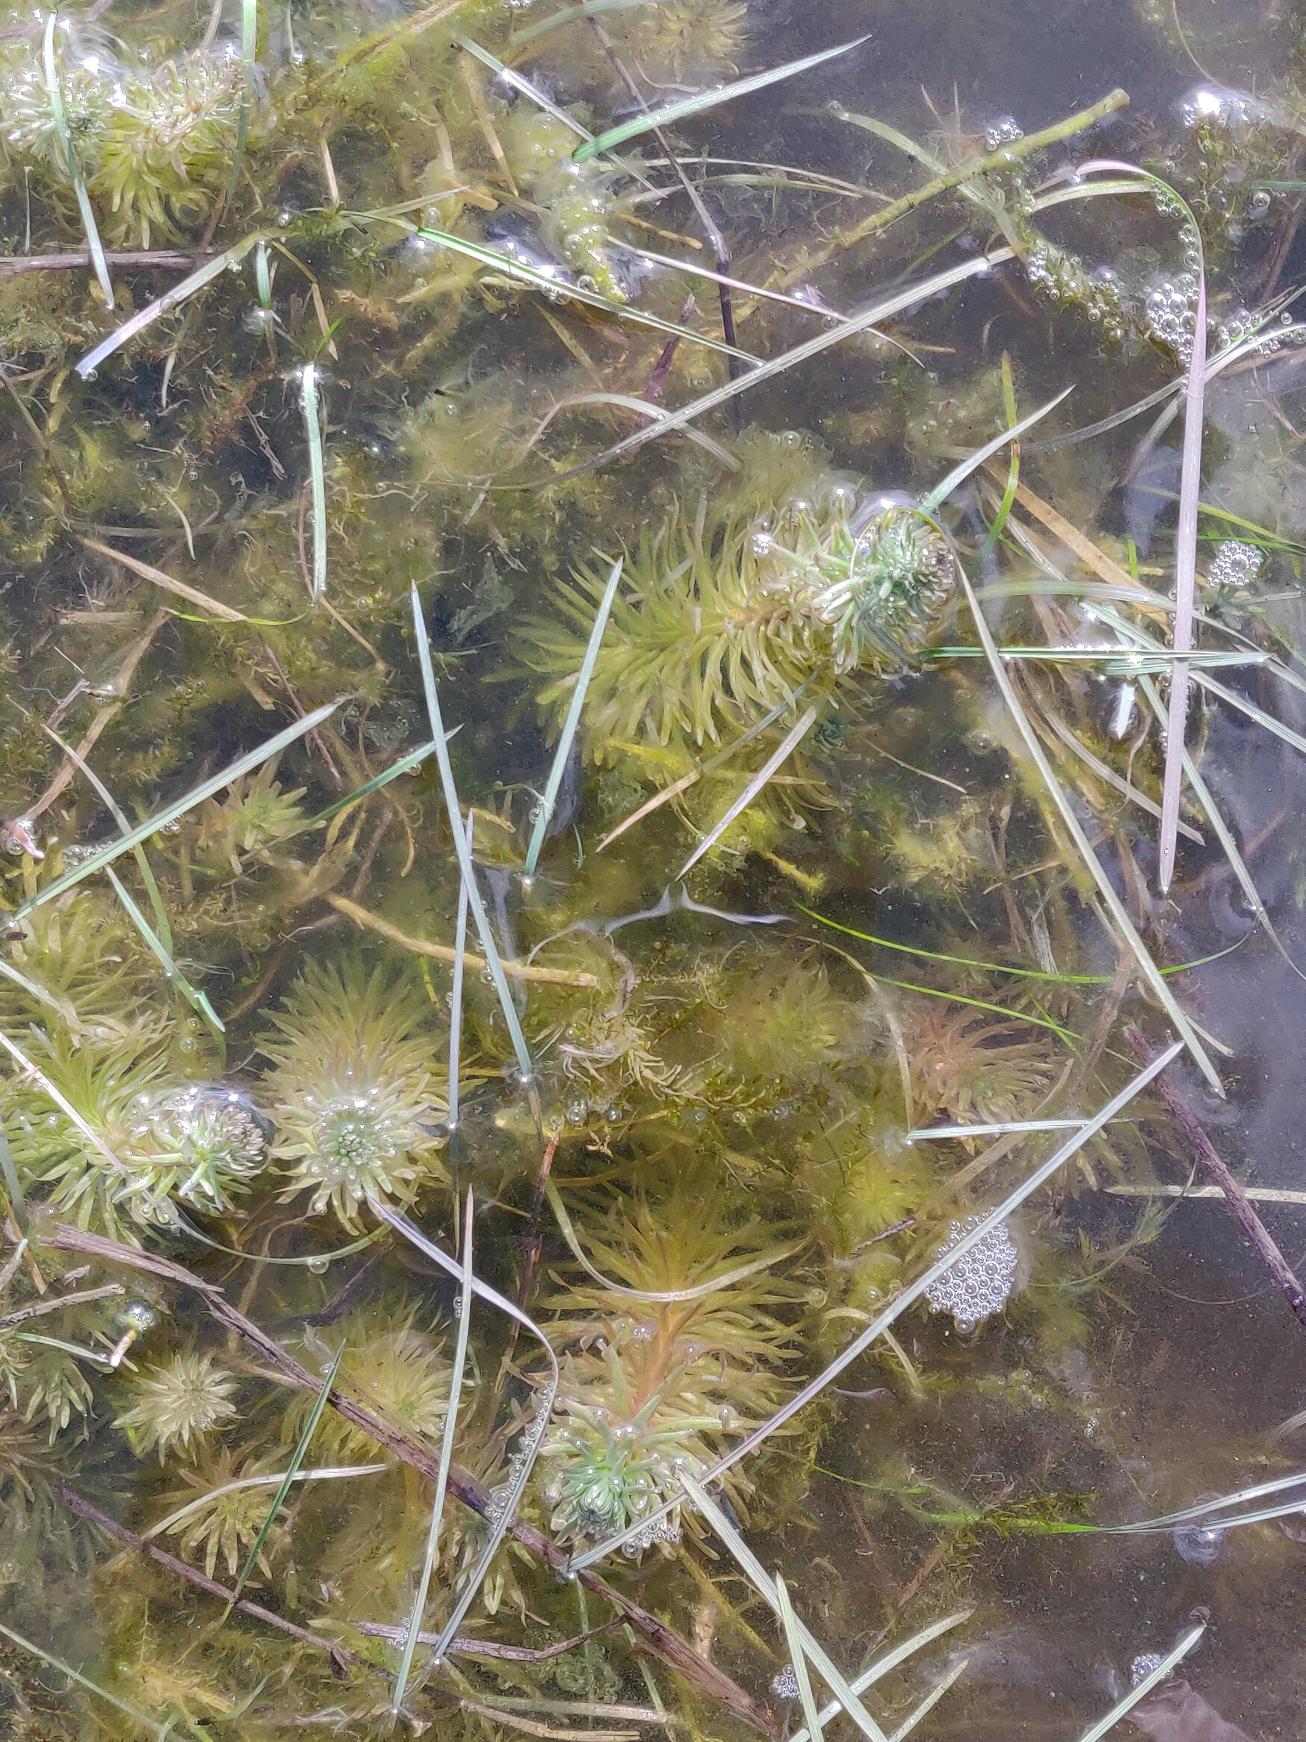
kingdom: Plantae
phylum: Tracheophyta
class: Magnoliopsida
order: Lamiales
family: Plantaginaceae
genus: Hippuris
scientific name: Hippuris vulgaris
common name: Vandspir
